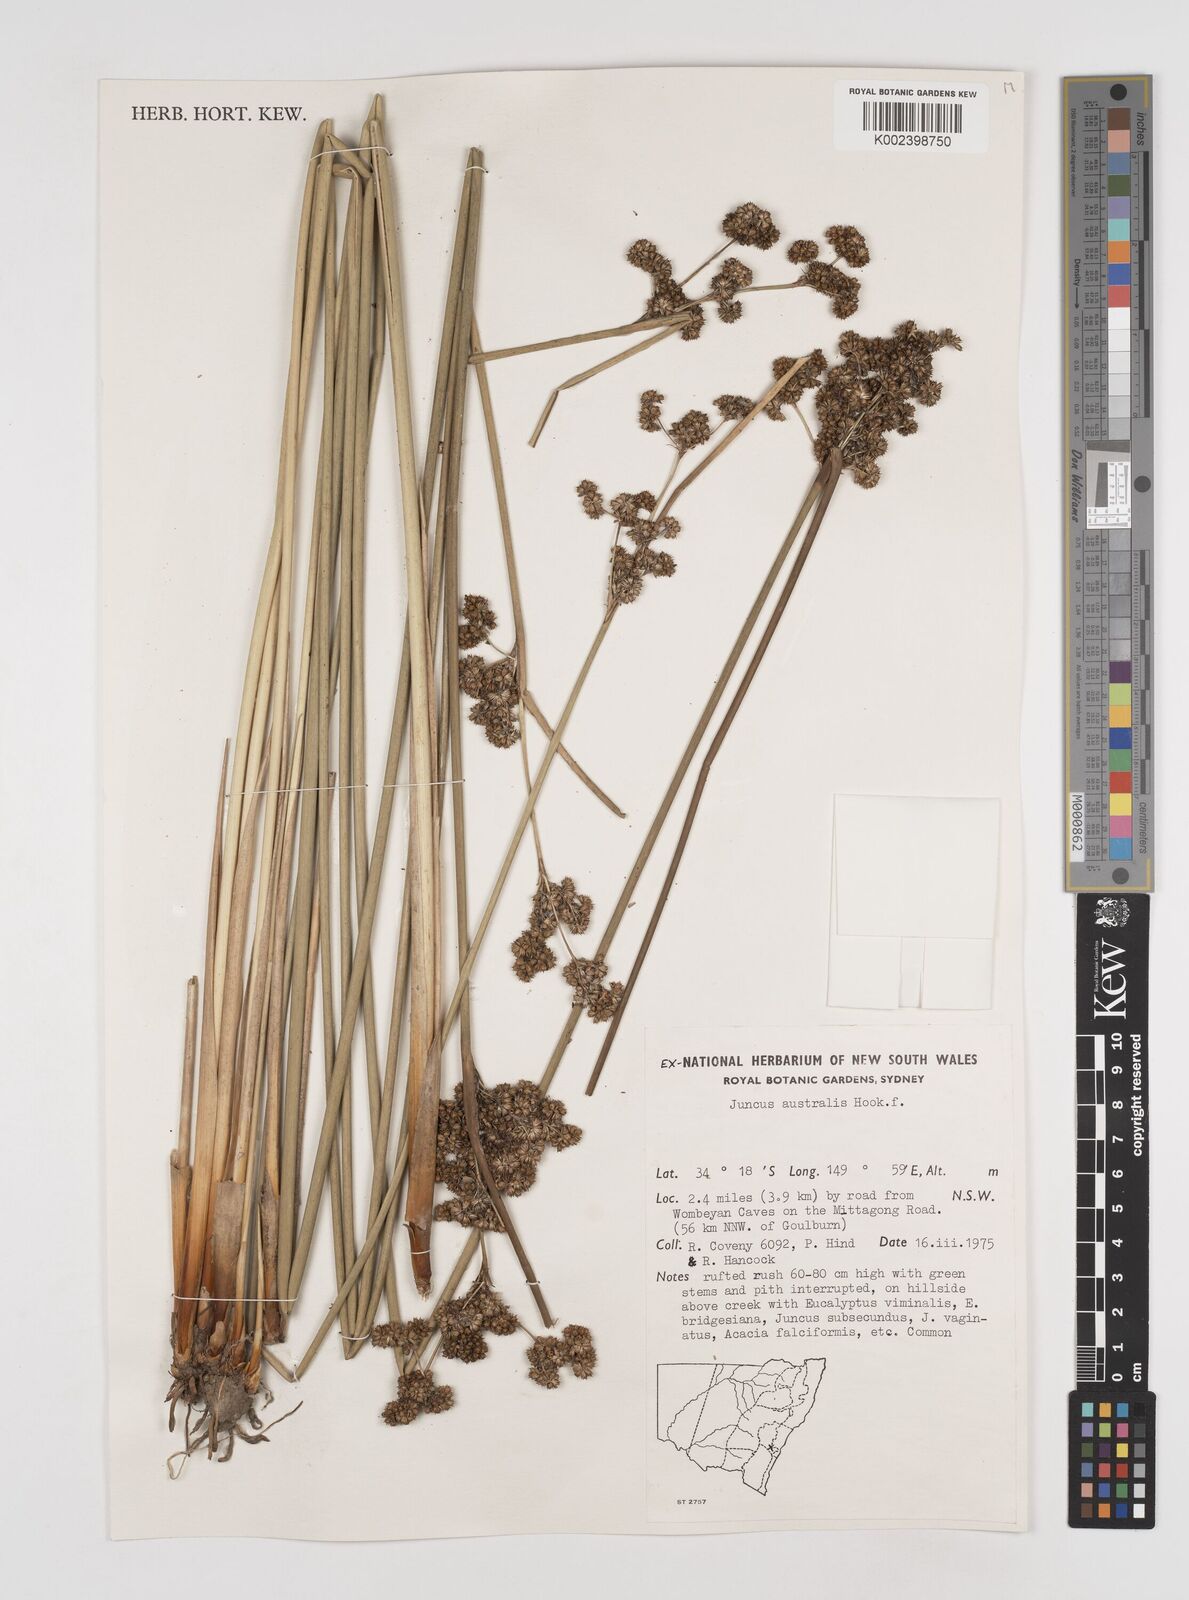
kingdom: Plantae
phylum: Tracheophyta
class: Liliopsida
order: Poales
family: Juncaceae
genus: Juncus
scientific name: Juncus australis
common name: Austral rush
